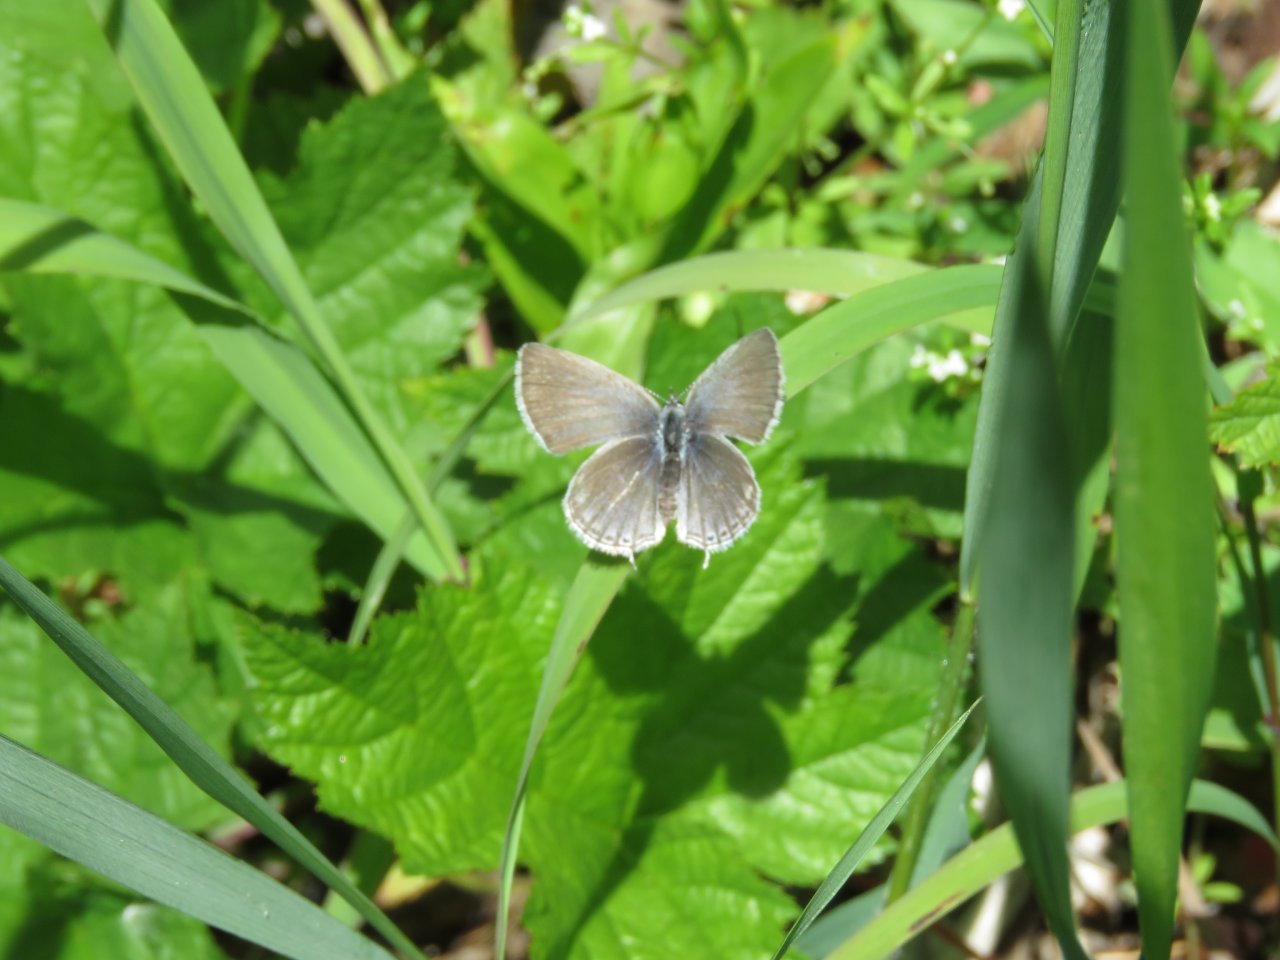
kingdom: Animalia
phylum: Arthropoda
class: Insecta
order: Lepidoptera
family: Lycaenidae
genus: Elkalyce
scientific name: Elkalyce amyntula
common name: Western Tailed-Blue
